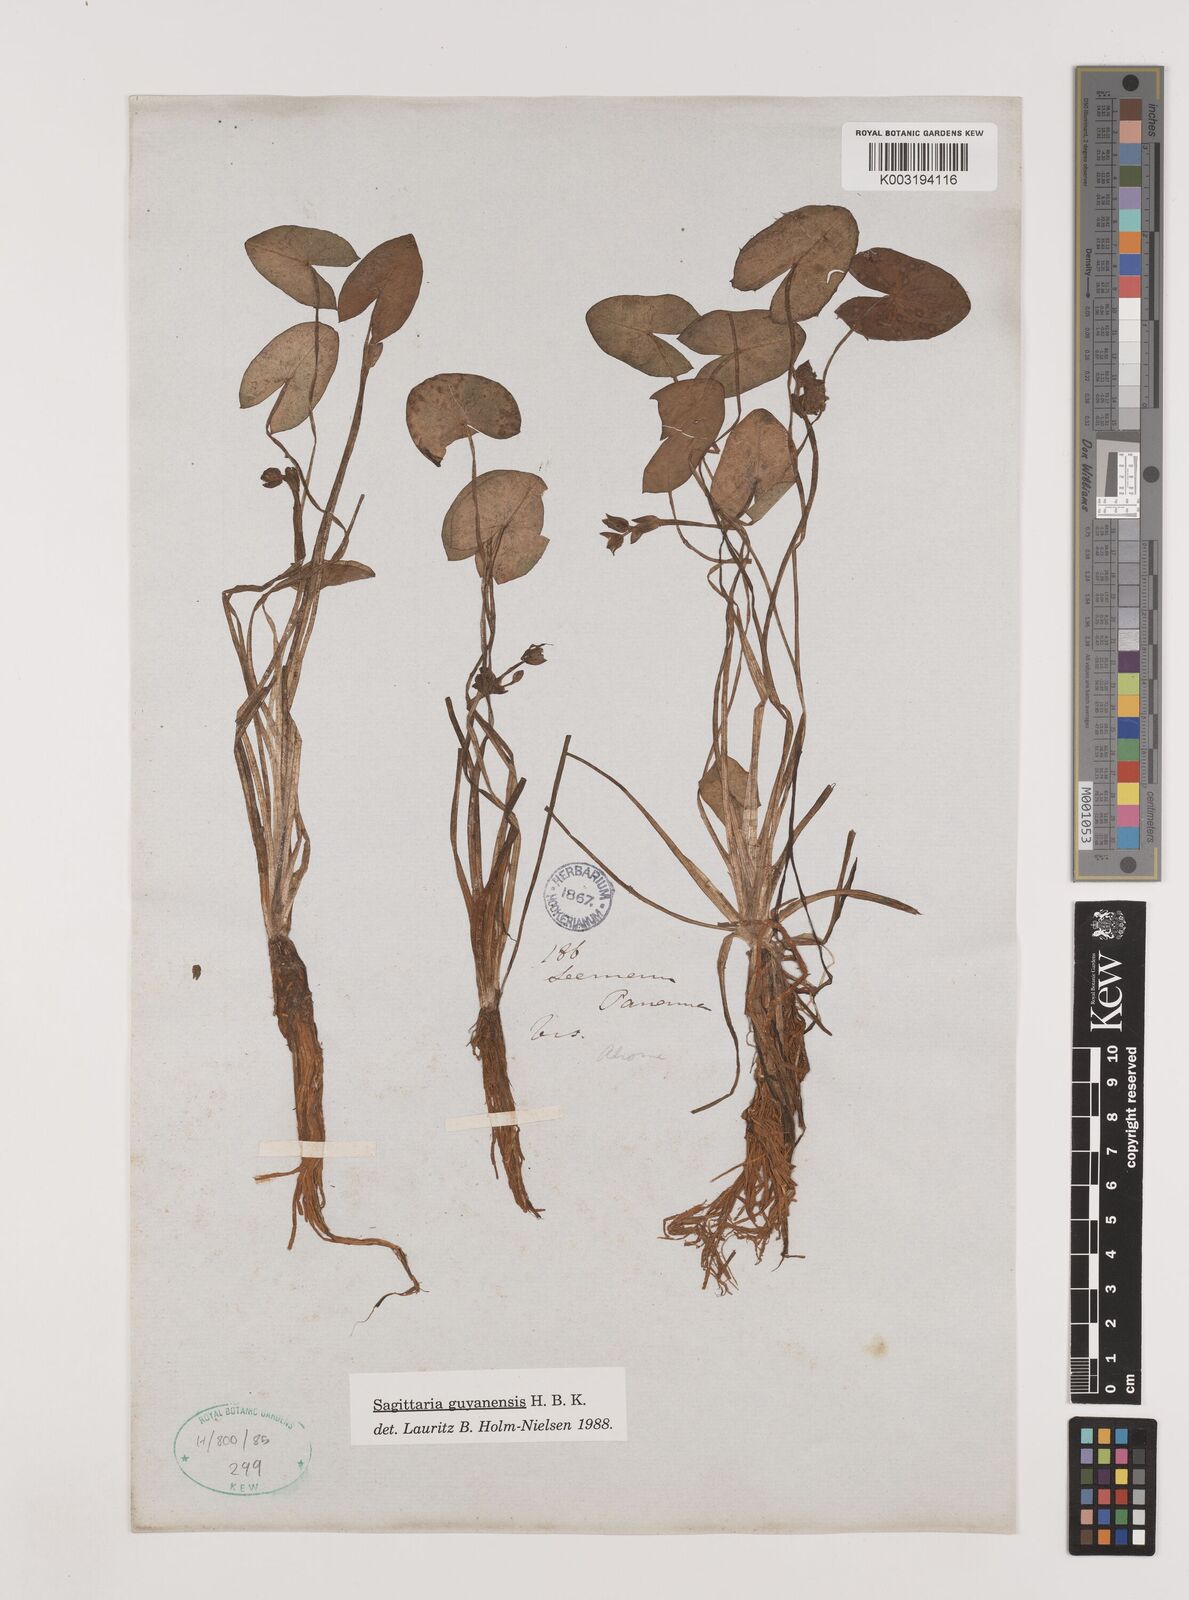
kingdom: Plantae
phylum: Tracheophyta
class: Liliopsida
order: Alismatales
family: Alismataceae
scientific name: Alismataceae
